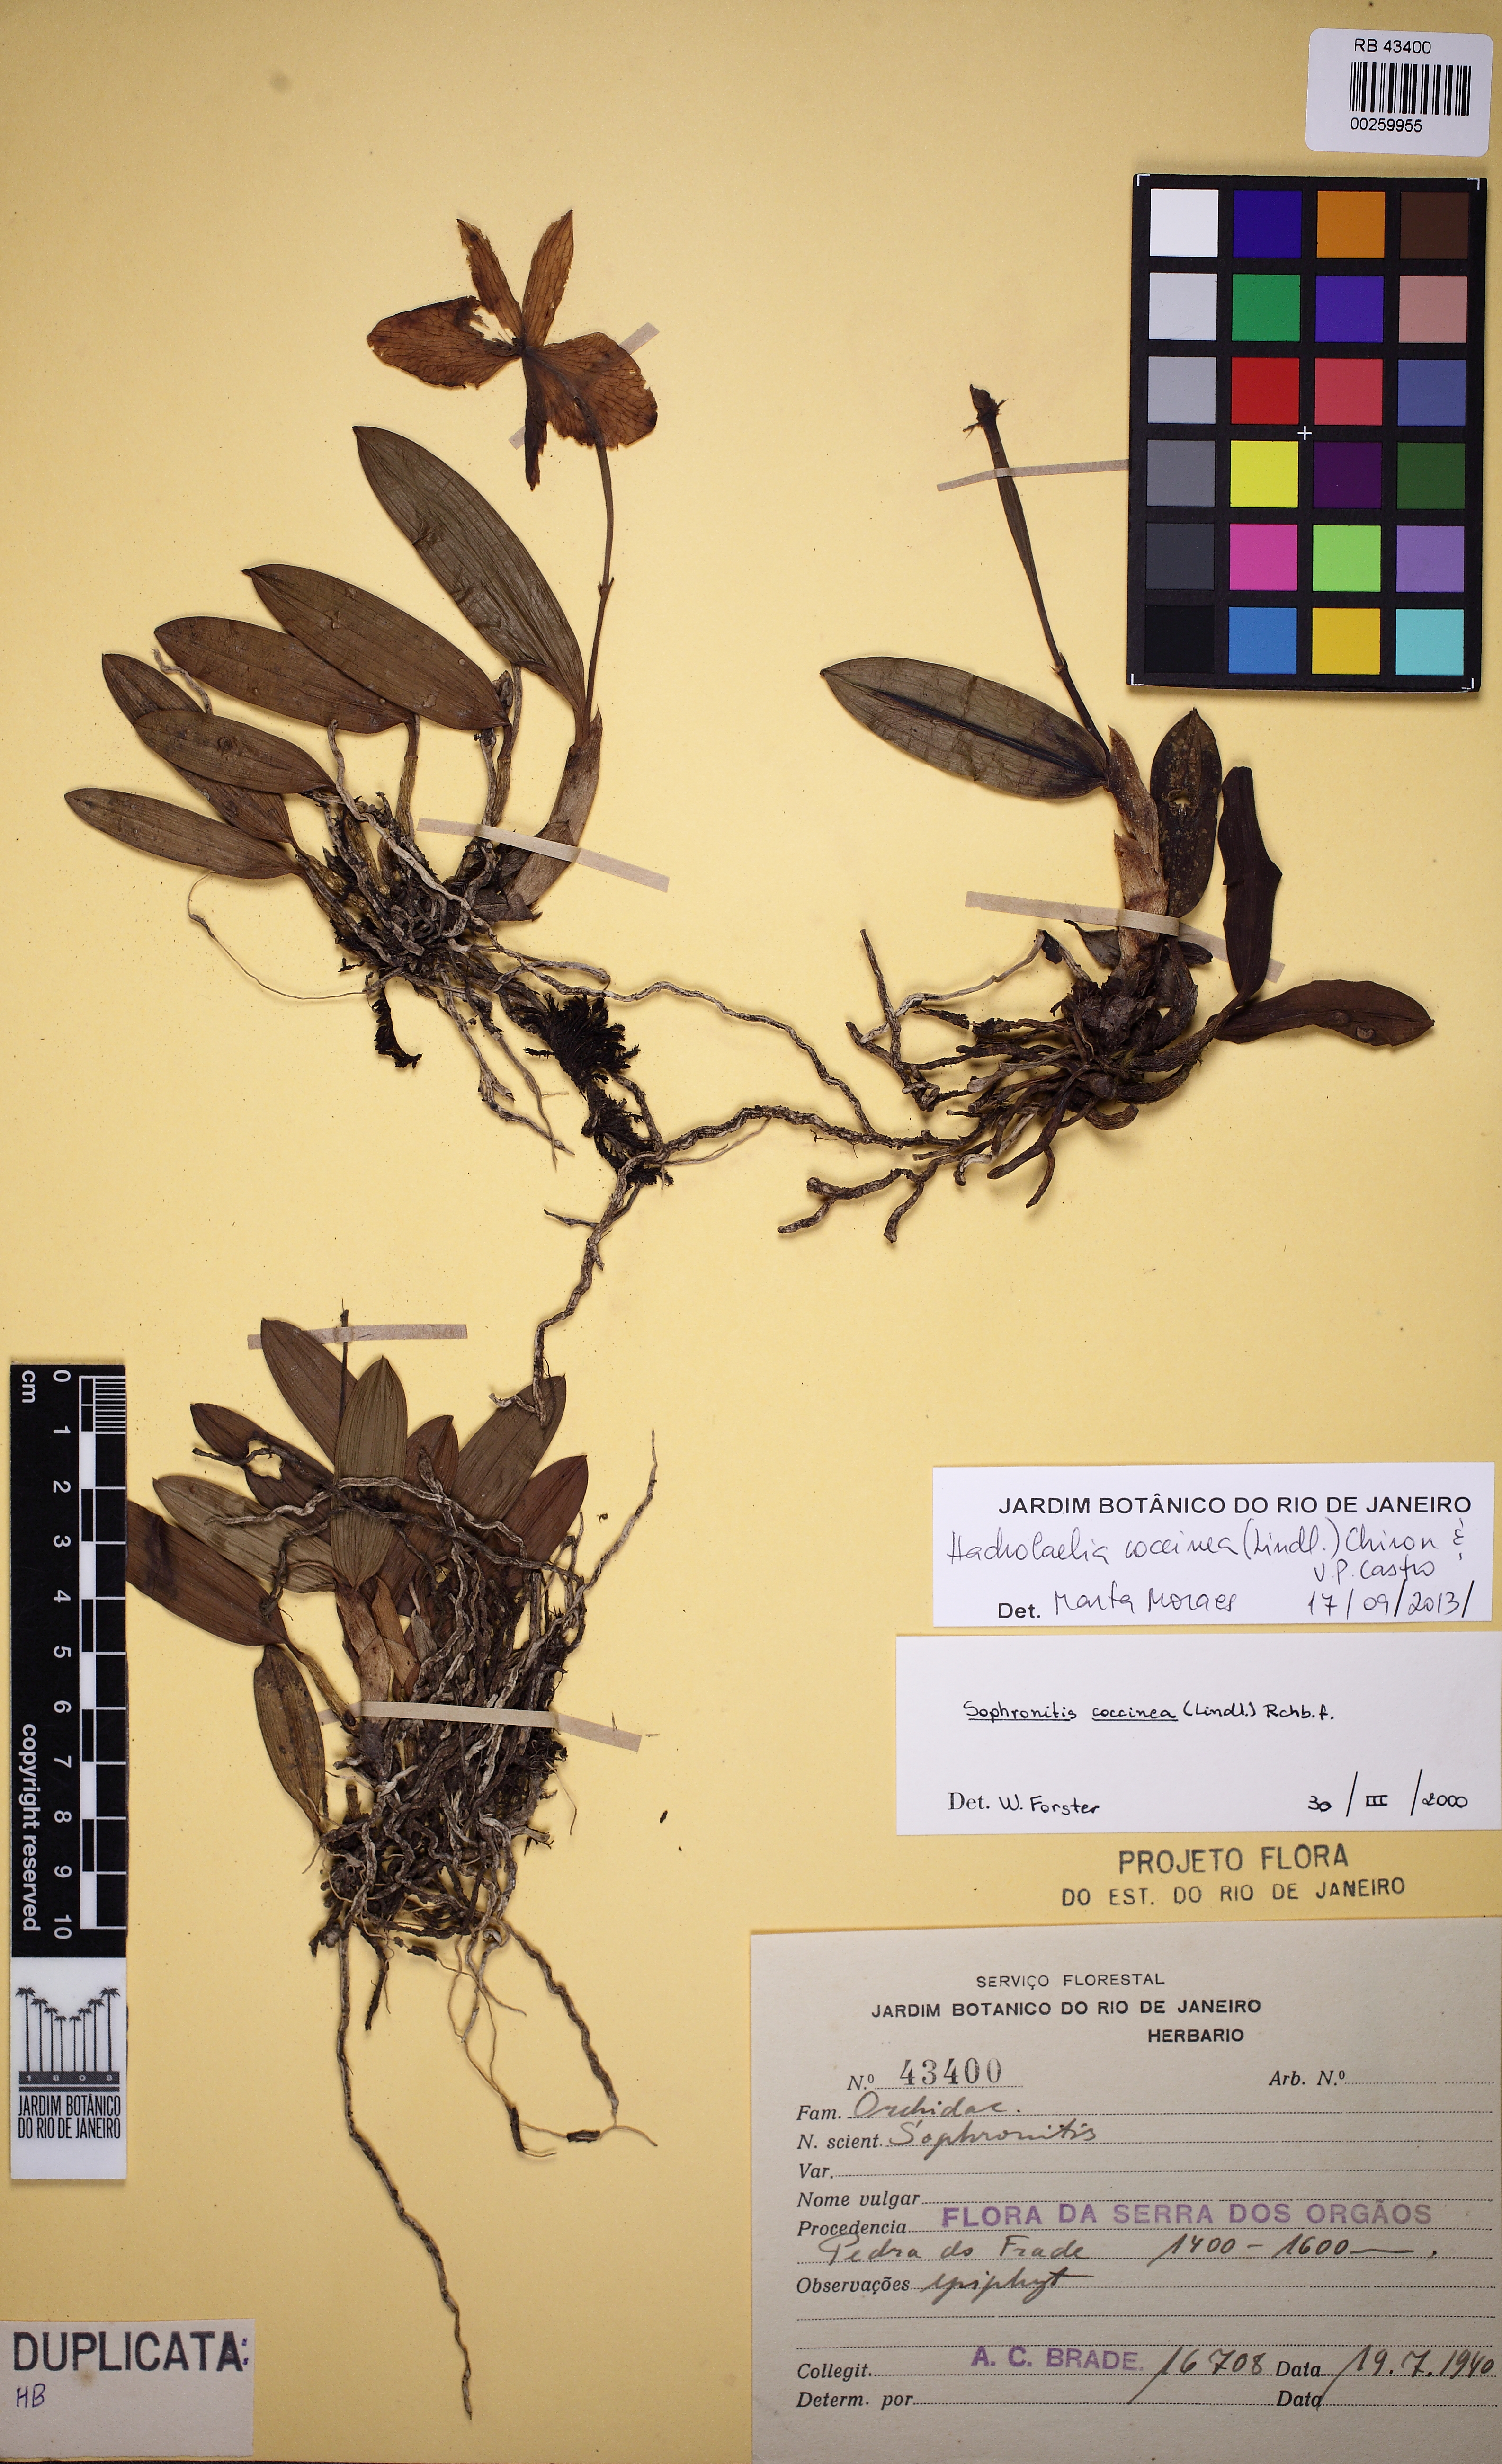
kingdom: Plantae
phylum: Tracheophyta
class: Liliopsida
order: Asparagales
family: Orchidaceae
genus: Cattleya
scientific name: Cattleya coccinea
